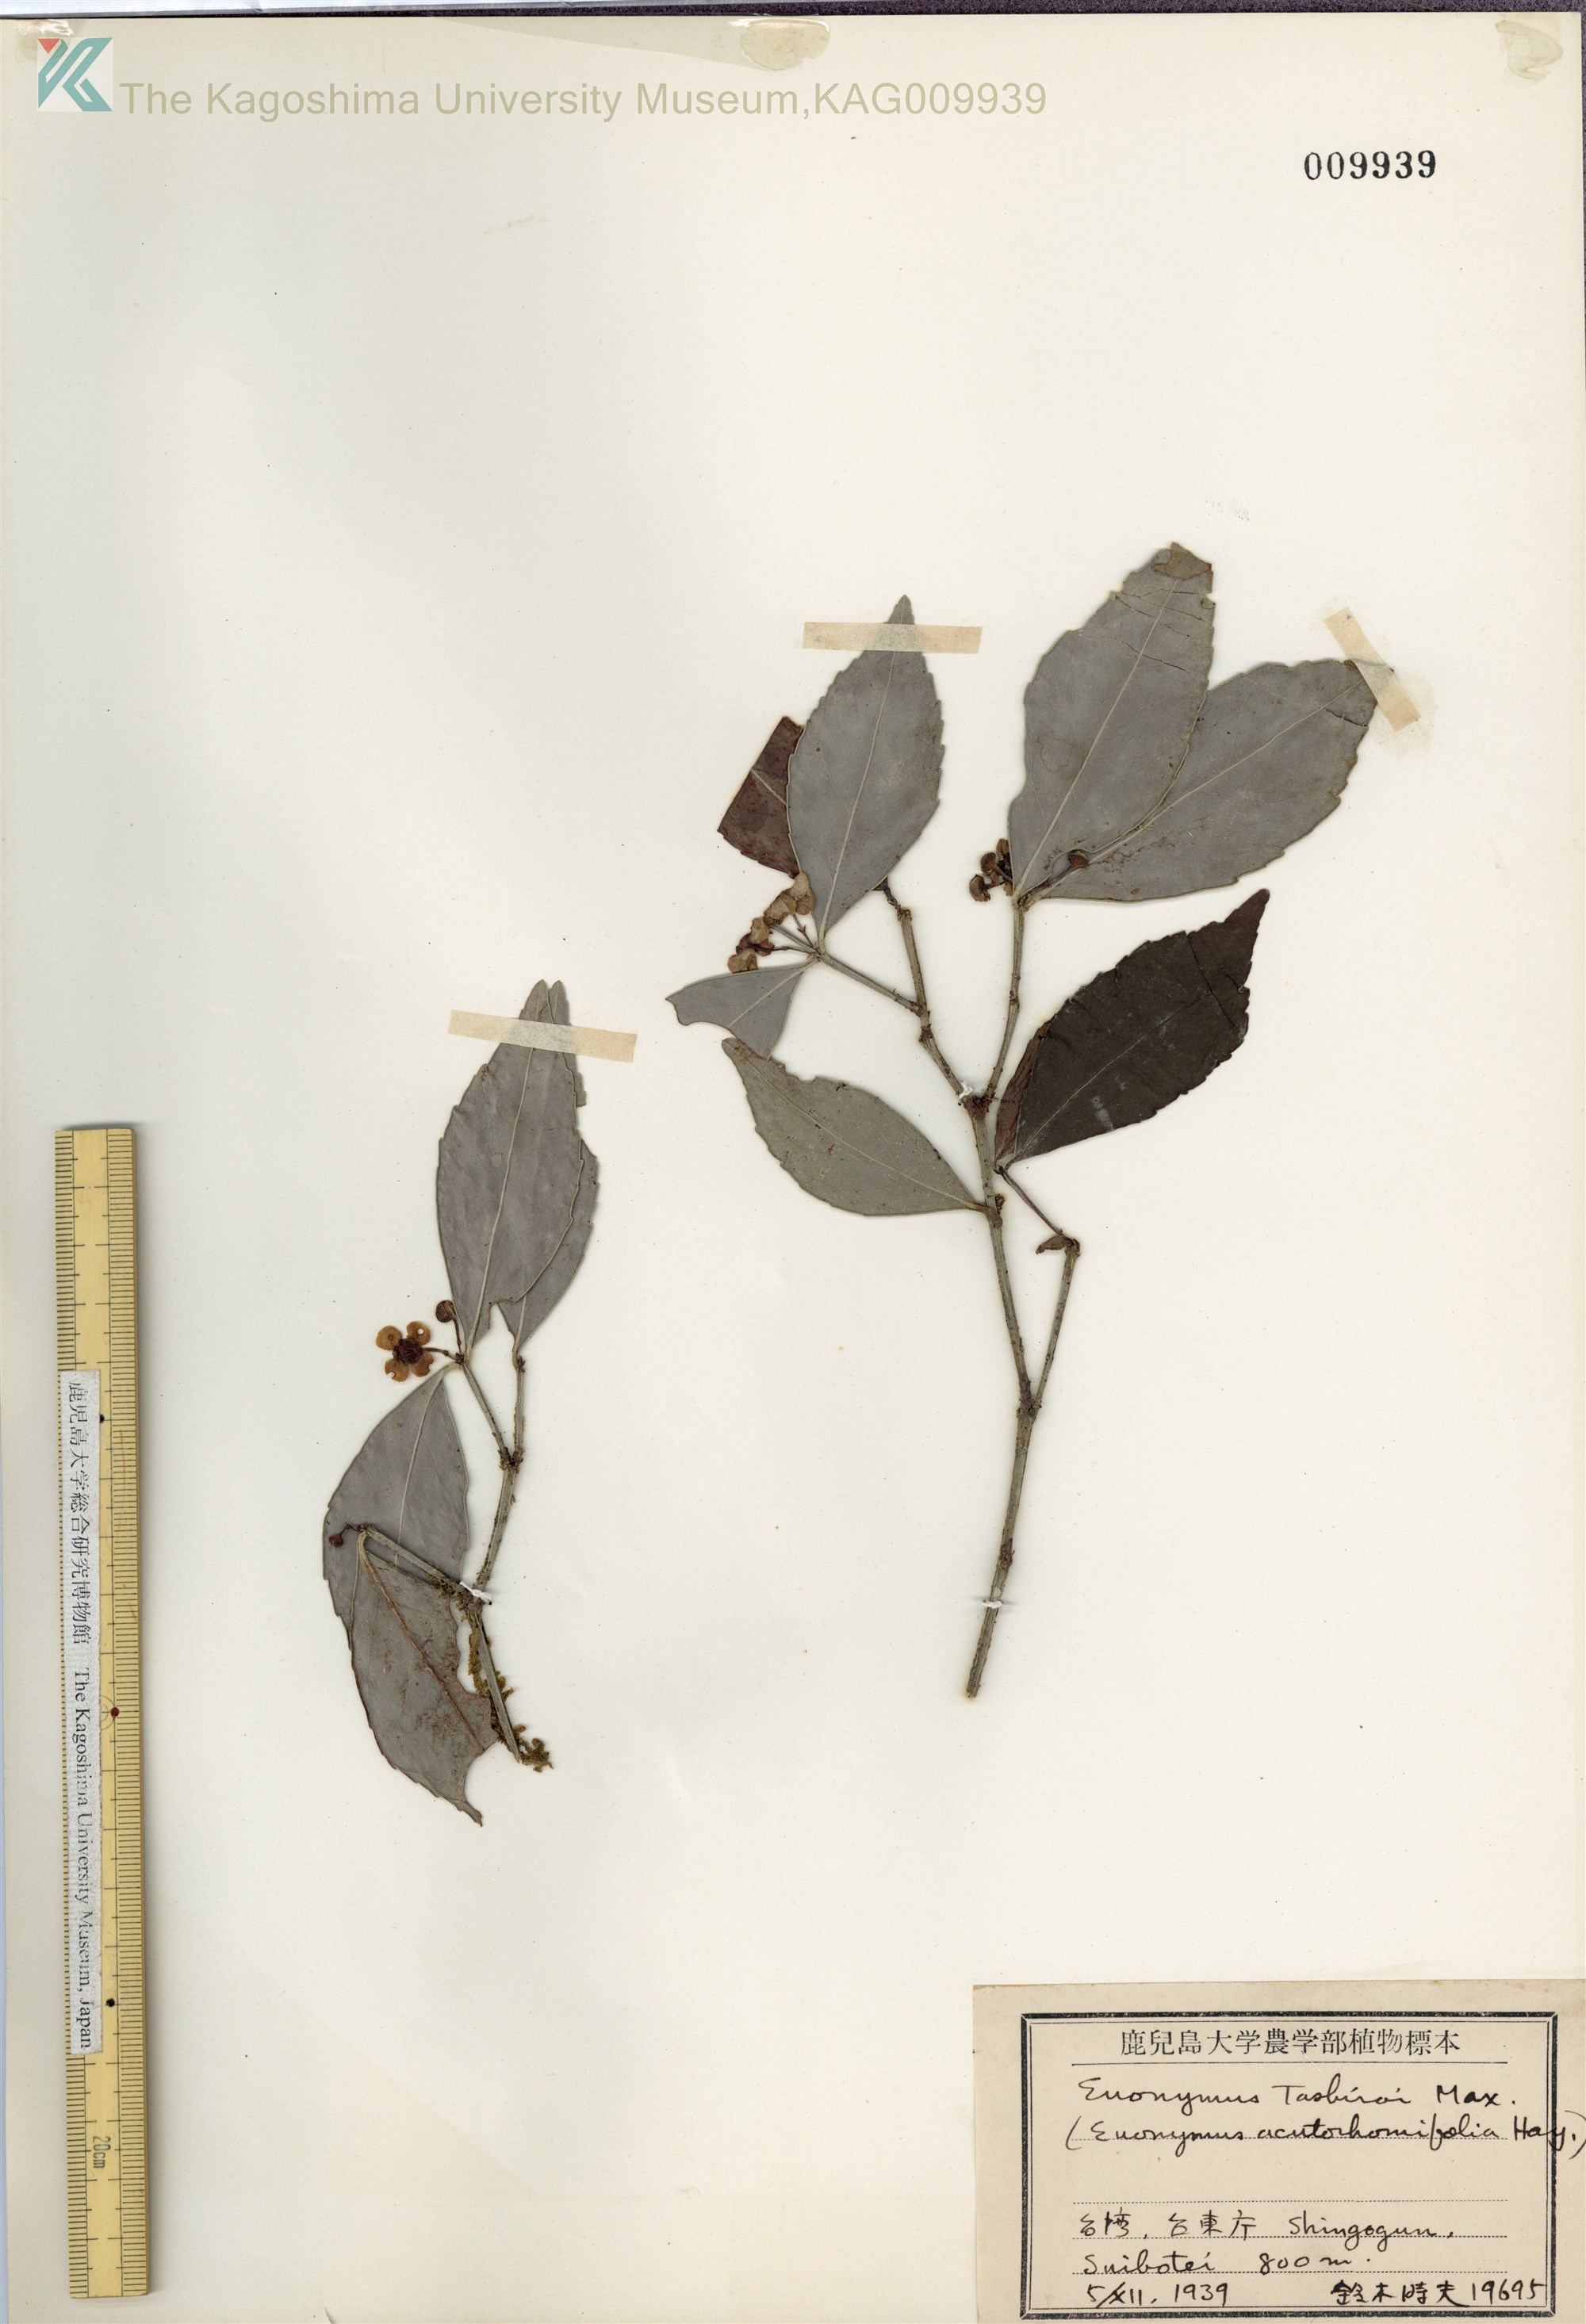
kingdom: Plantae
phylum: Tracheophyta
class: Magnoliopsida
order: Celastrales
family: Celastraceae
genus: Euonymus
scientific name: Euonymus tashiroi
